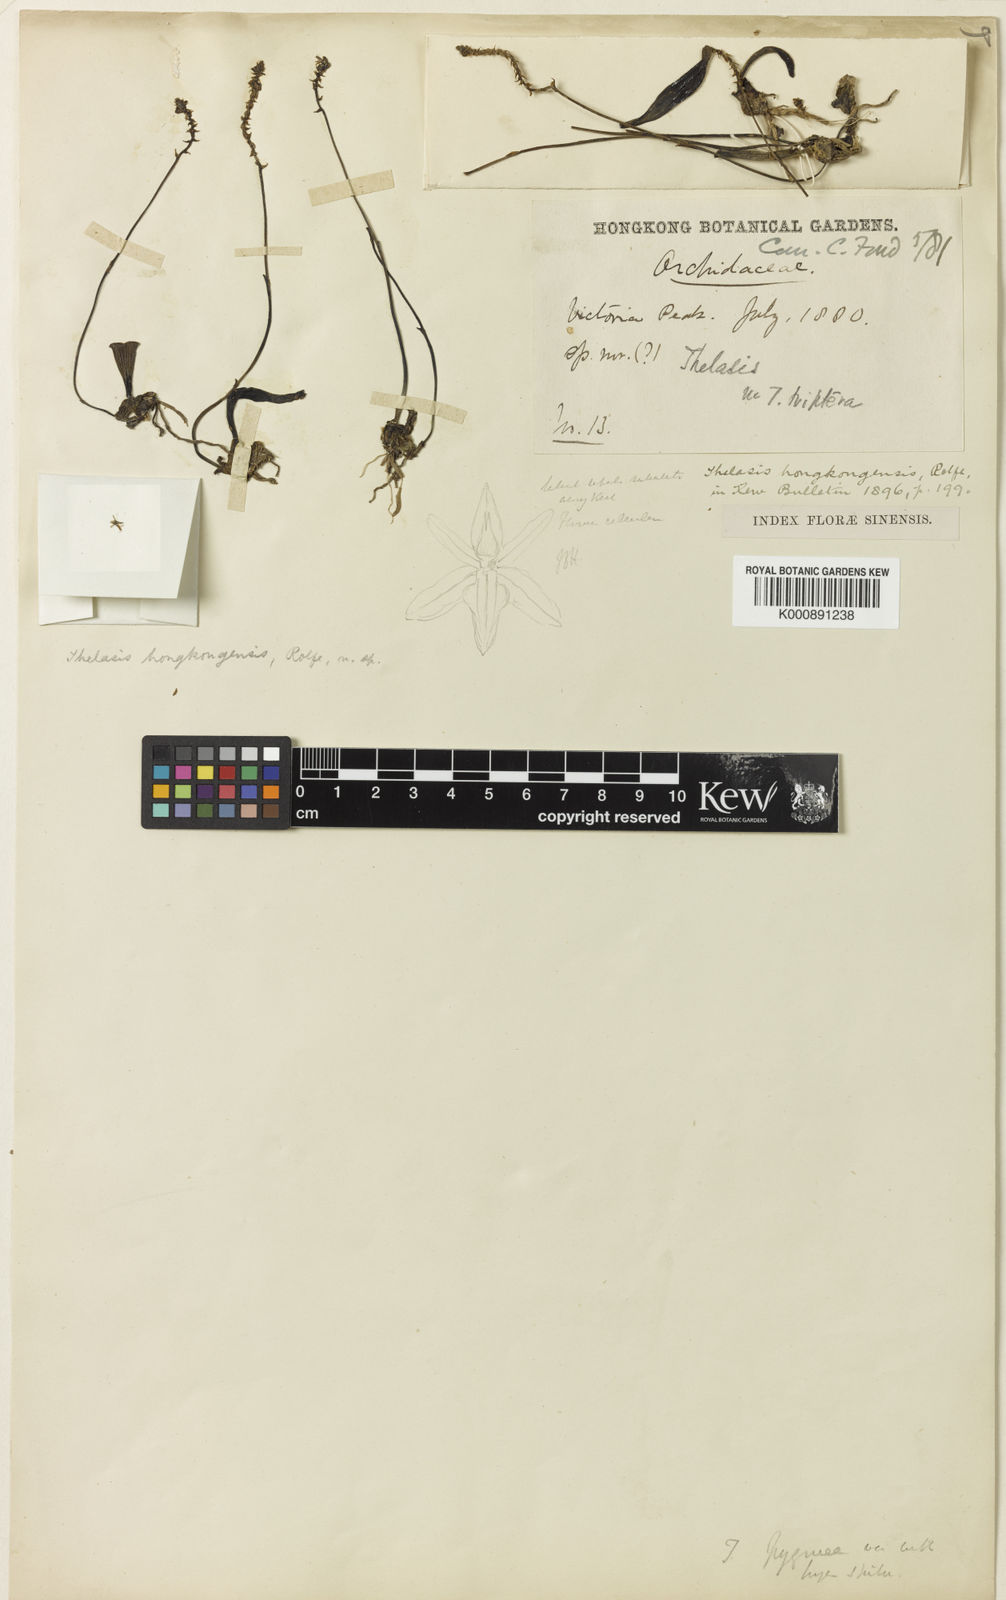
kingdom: Plantae
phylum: Tracheophyta
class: Liliopsida
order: Asparagales
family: Orchidaceae
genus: Thelasis
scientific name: Thelasis pygmaea
